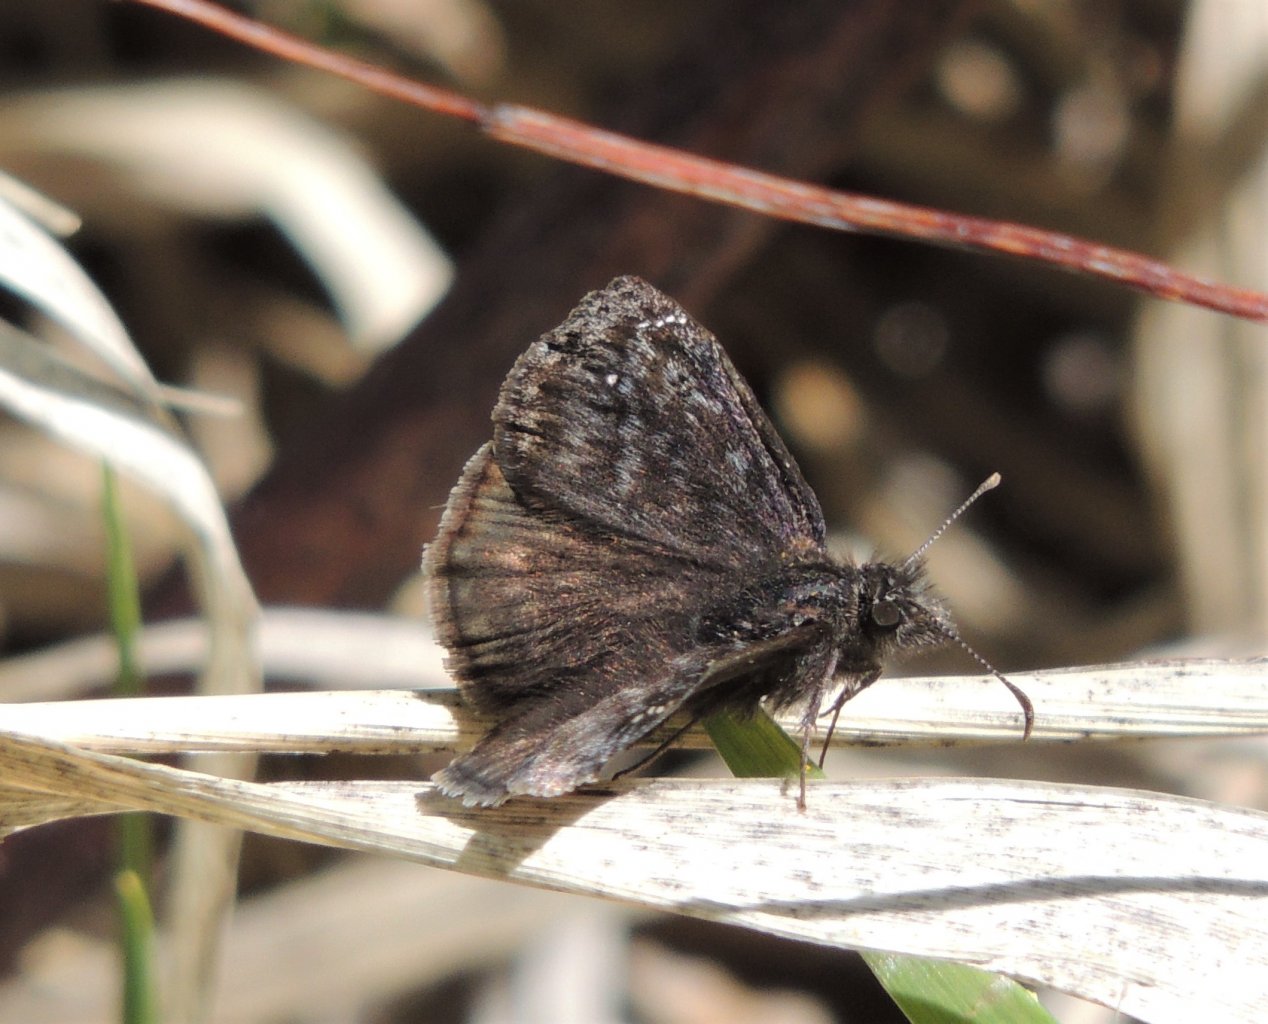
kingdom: Animalia
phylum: Arthropoda
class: Insecta
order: Lepidoptera
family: Hesperiidae
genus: Gesta
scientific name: Gesta
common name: Persius Duskywing
